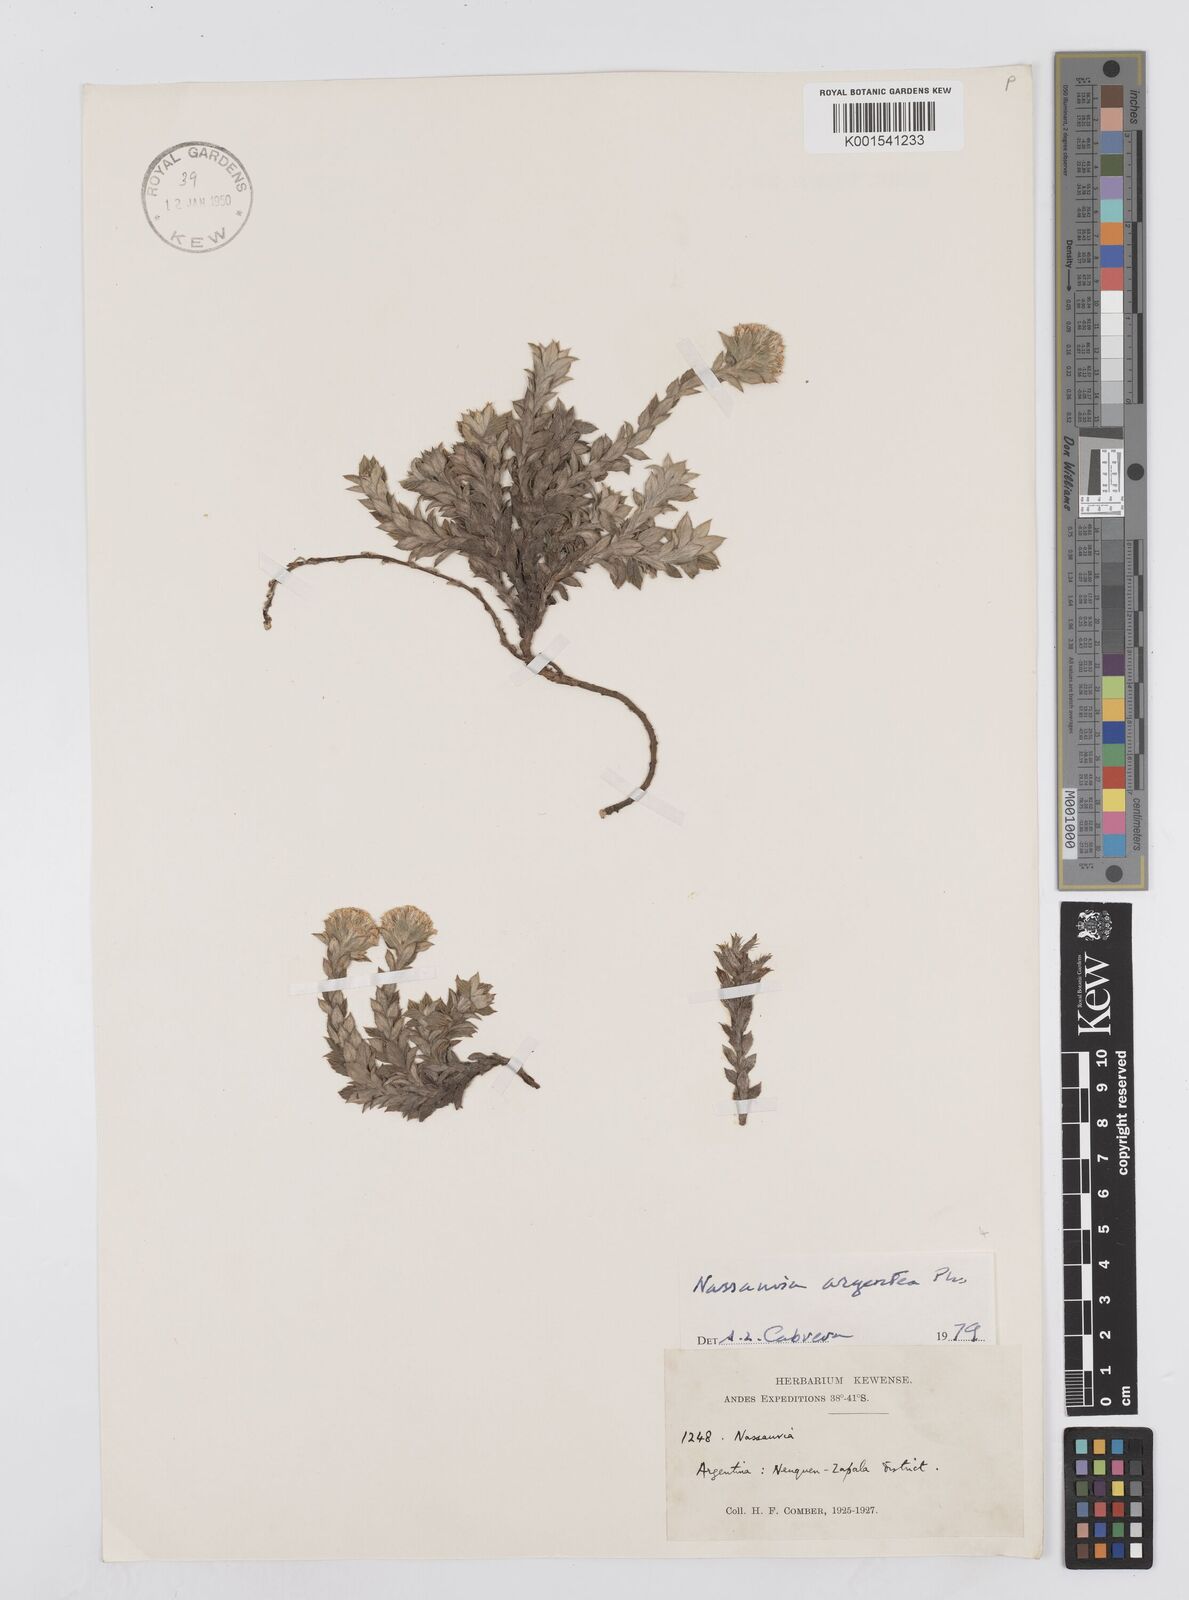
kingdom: Plantae
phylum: Tracheophyta
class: Magnoliopsida
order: Asterales
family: Asteraceae
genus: Nassauvia
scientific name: Nassauvia argentea
